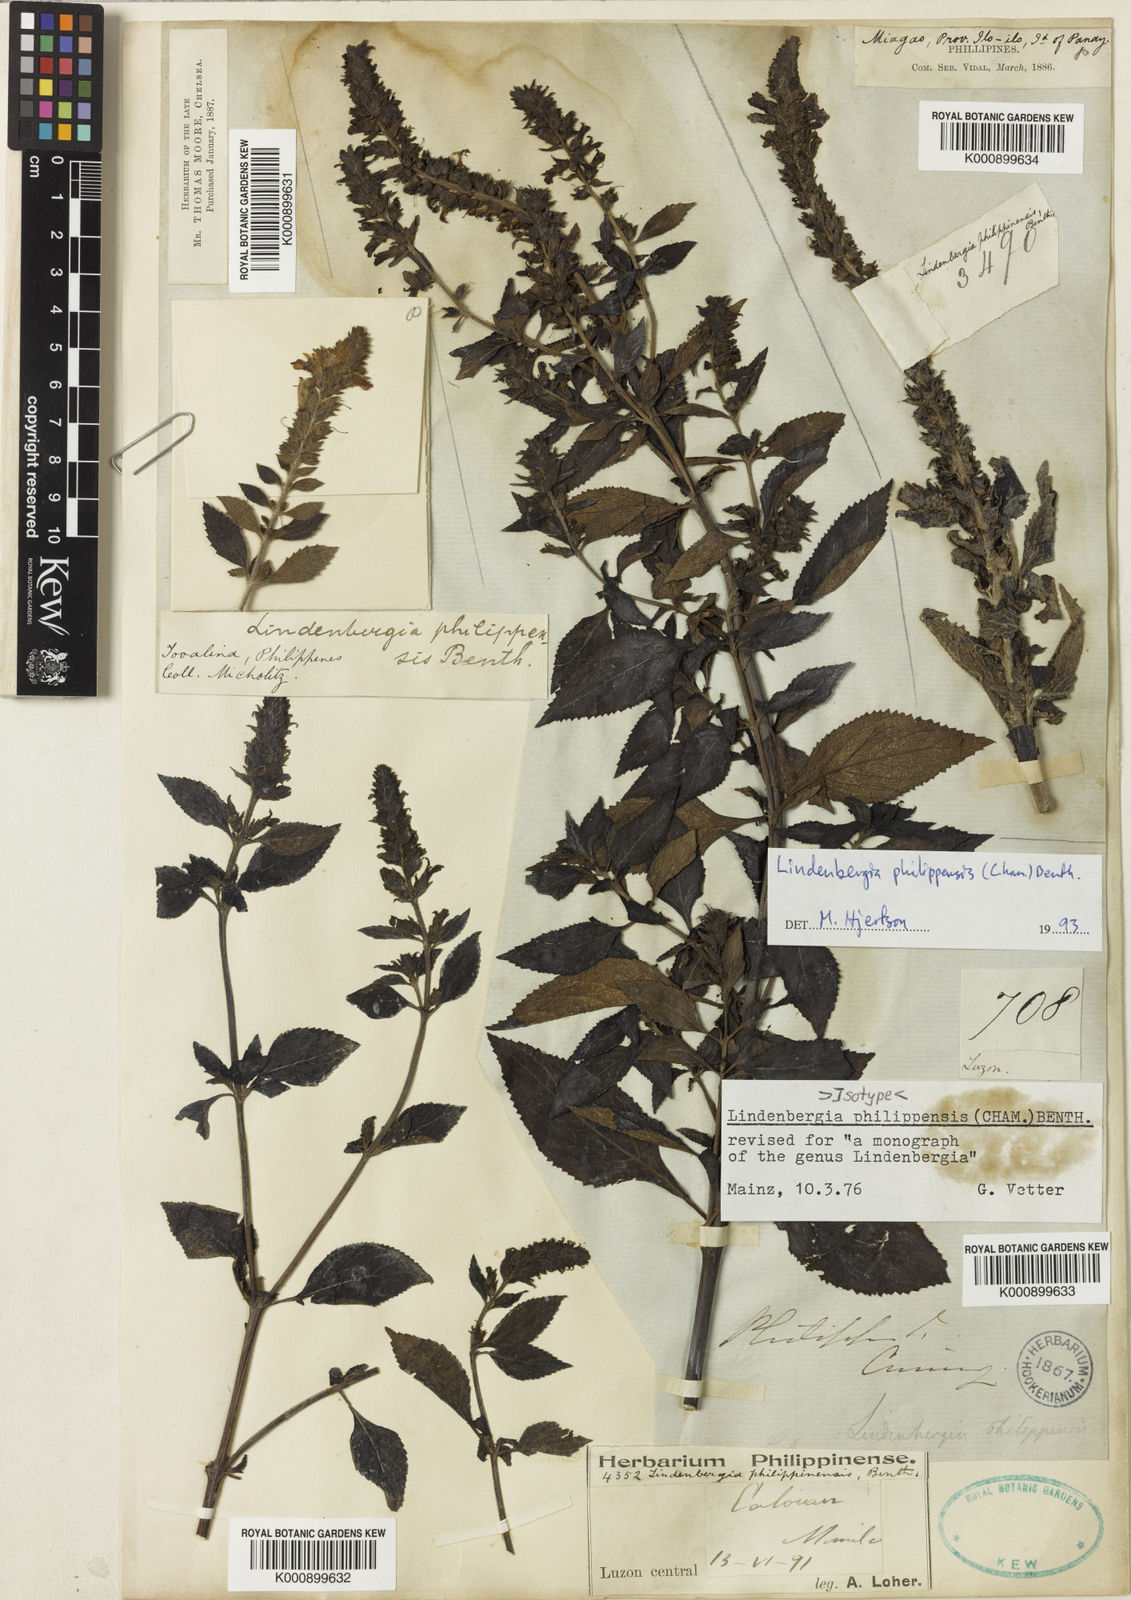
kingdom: Plantae
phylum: Tracheophyta
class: Magnoliopsida
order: Lamiales
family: Orobanchaceae
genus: Lindenbergia
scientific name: Lindenbergia philippensis
